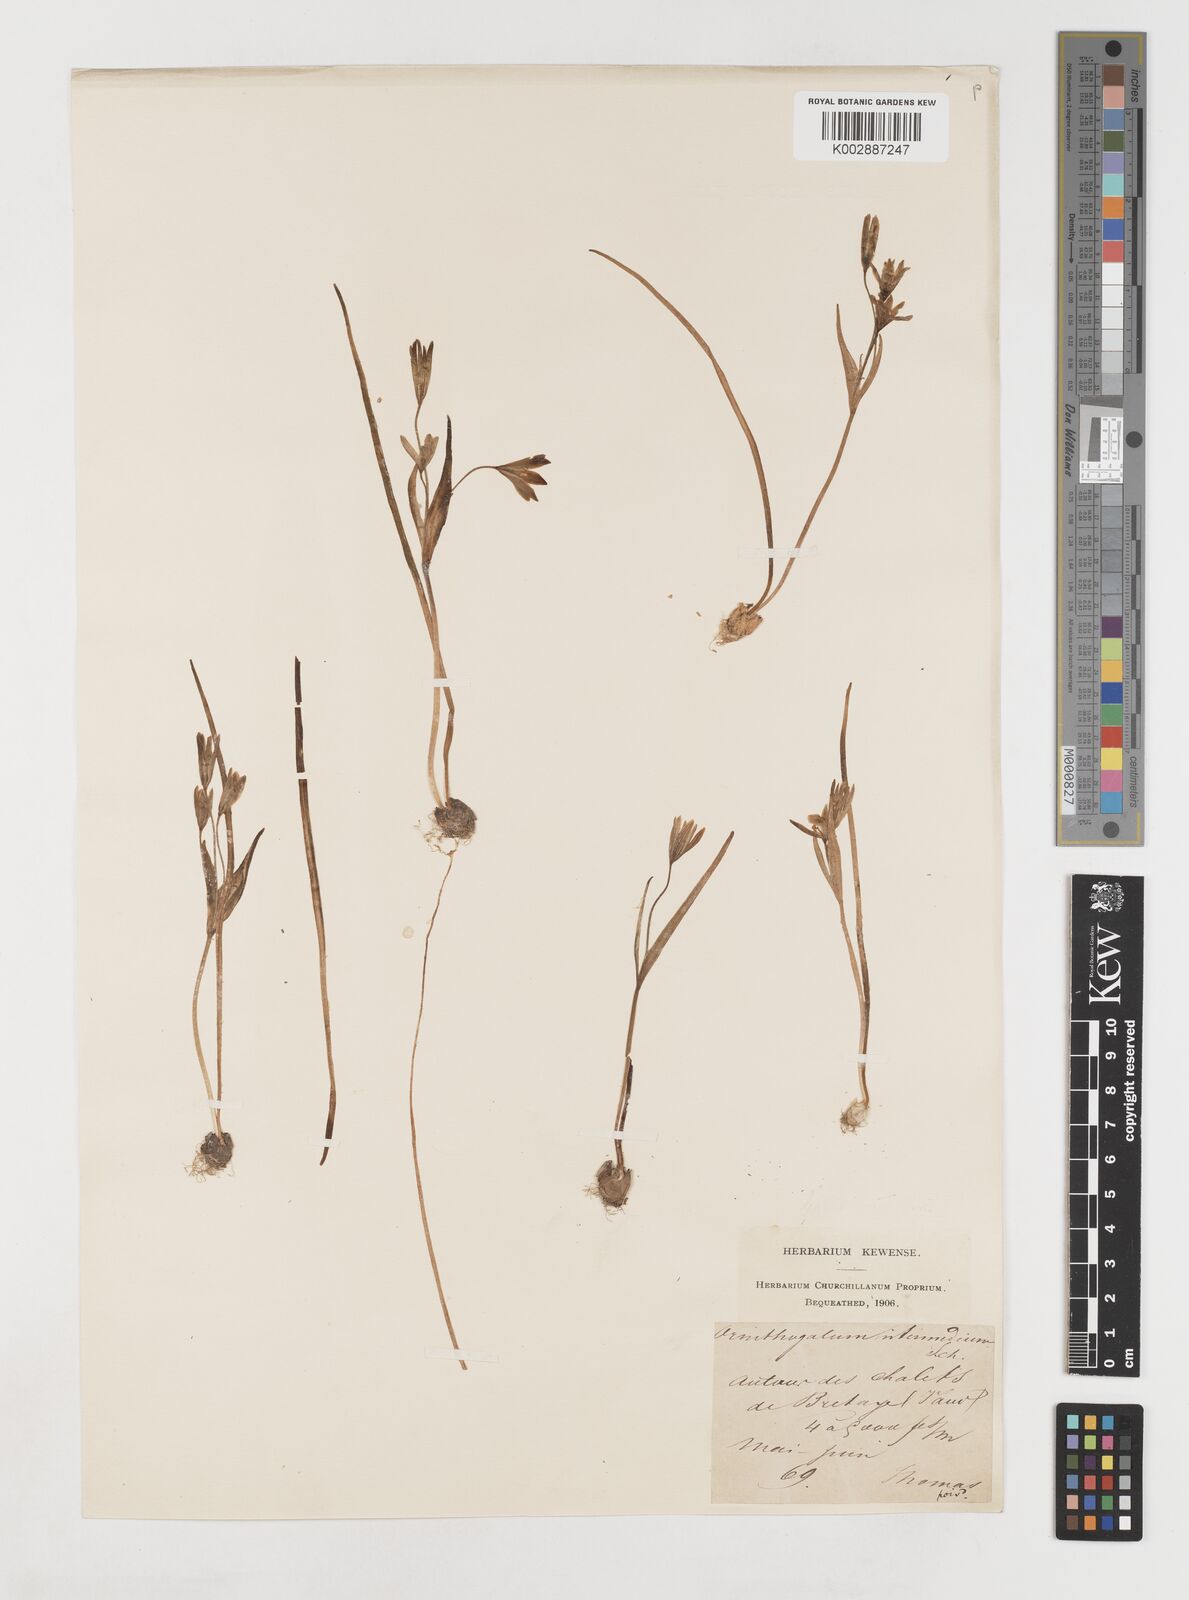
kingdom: Plantae
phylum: Tracheophyta
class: Liliopsida
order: Liliales
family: Liliaceae
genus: Gagea
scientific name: Gagea bohemica
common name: Early star-of-bethlehem
